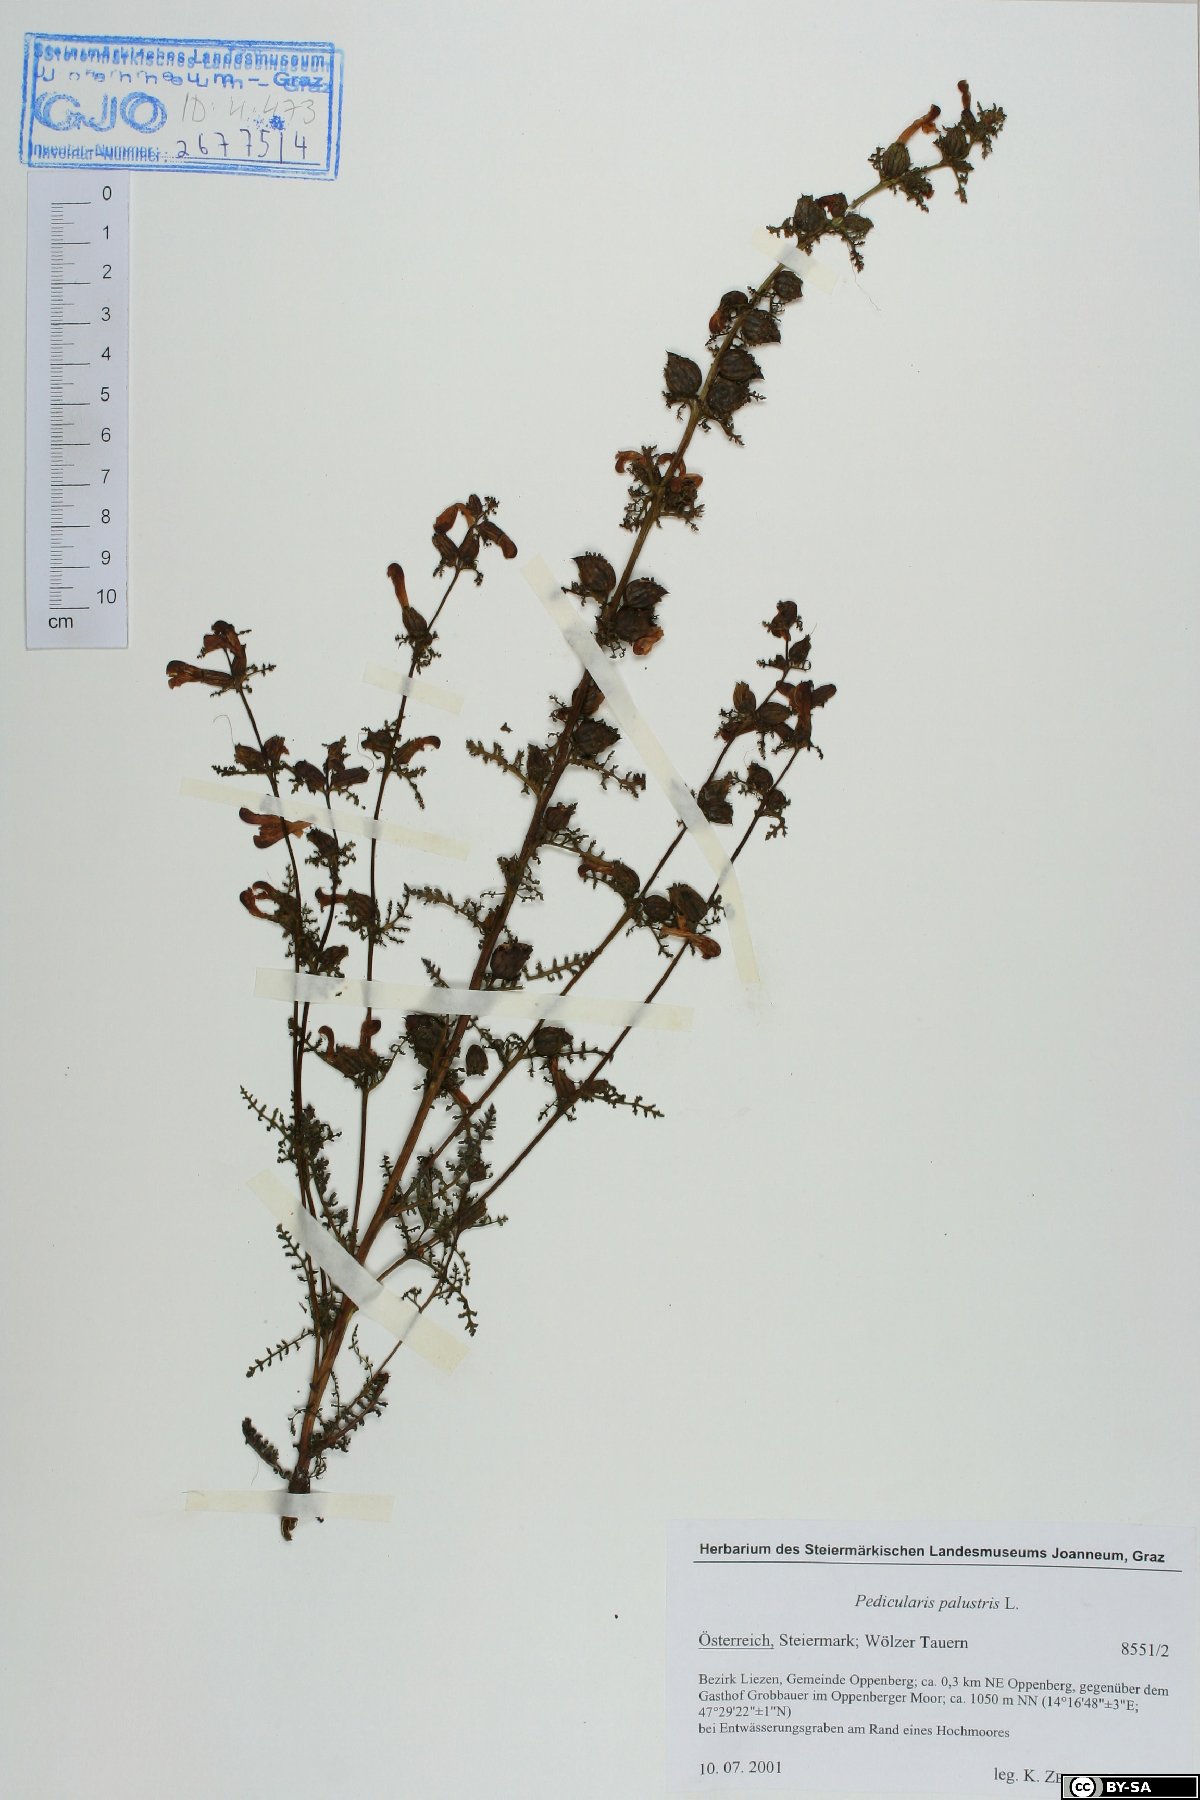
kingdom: Plantae
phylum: Tracheophyta
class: Magnoliopsida
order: Lamiales
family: Orobanchaceae
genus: Pedicularis
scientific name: Pedicularis palustris
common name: Marsh lousewort
